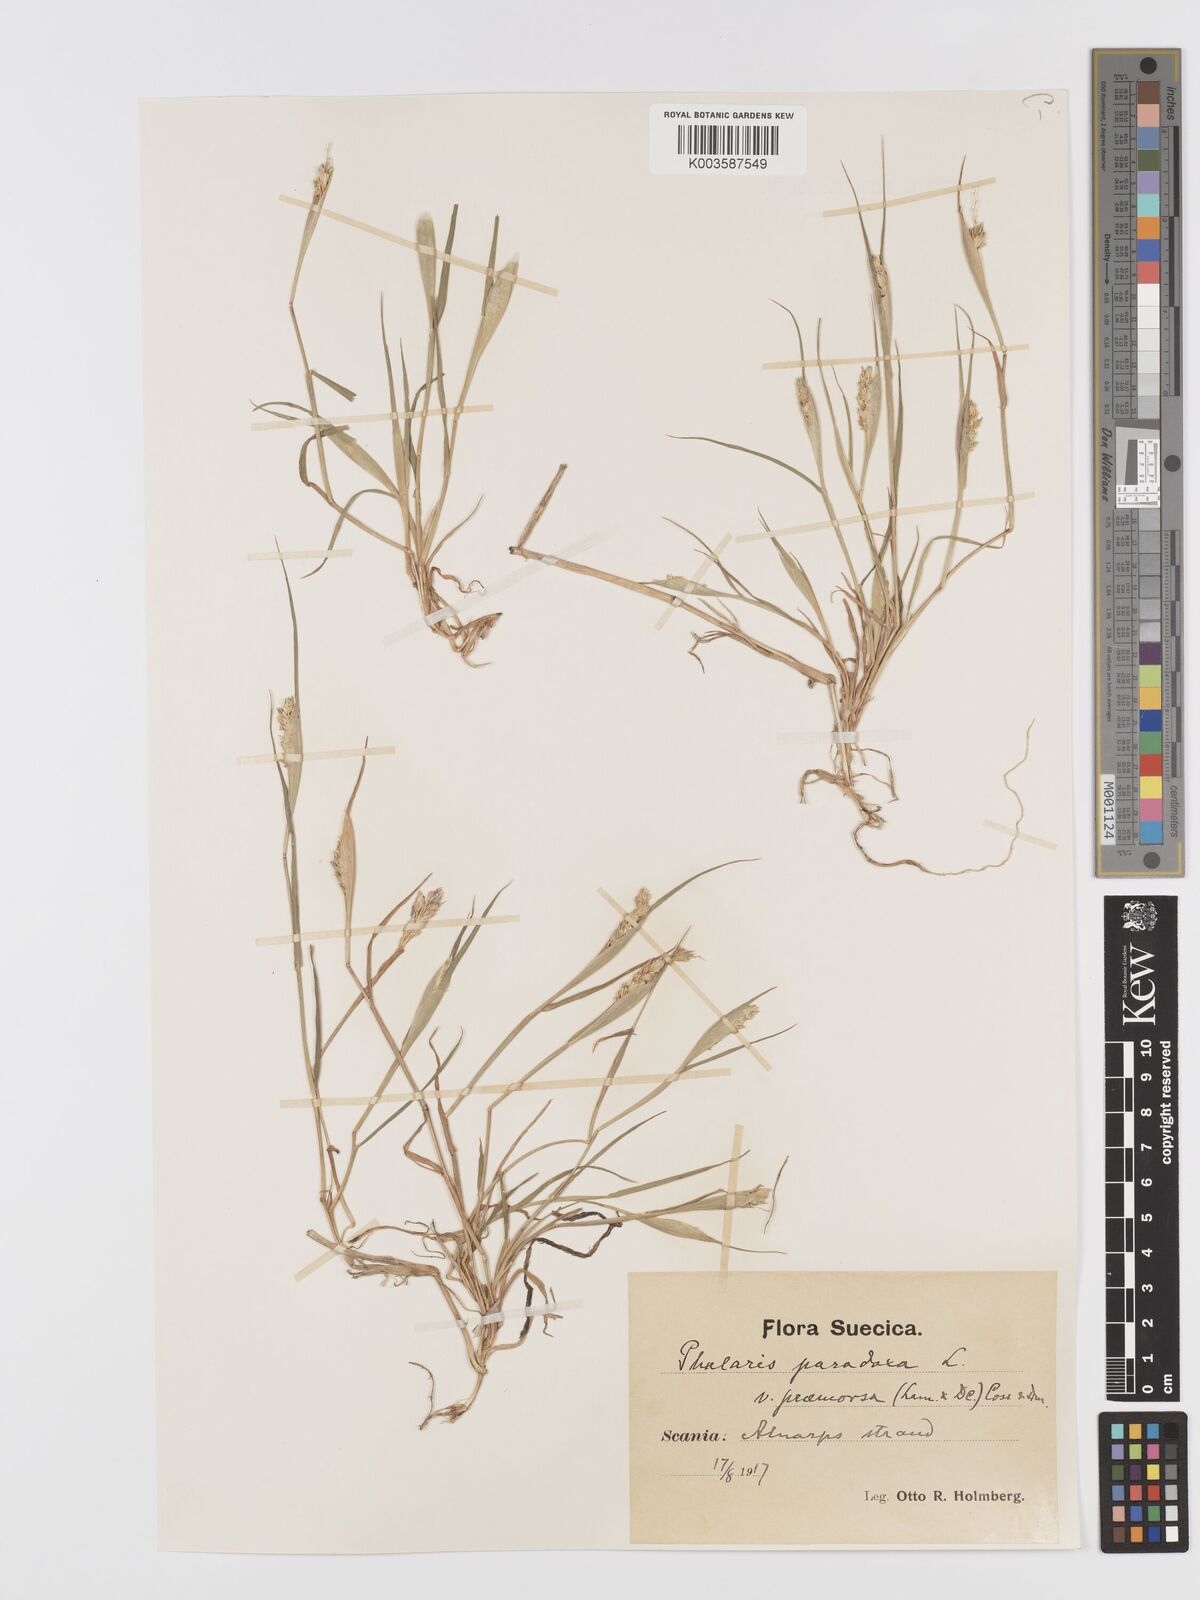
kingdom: Plantae
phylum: Tracheophyta
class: Liliopsida
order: Poales
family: Poaceae
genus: Phalaris
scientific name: Phalaris paradoxa
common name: Awned canary-grass
